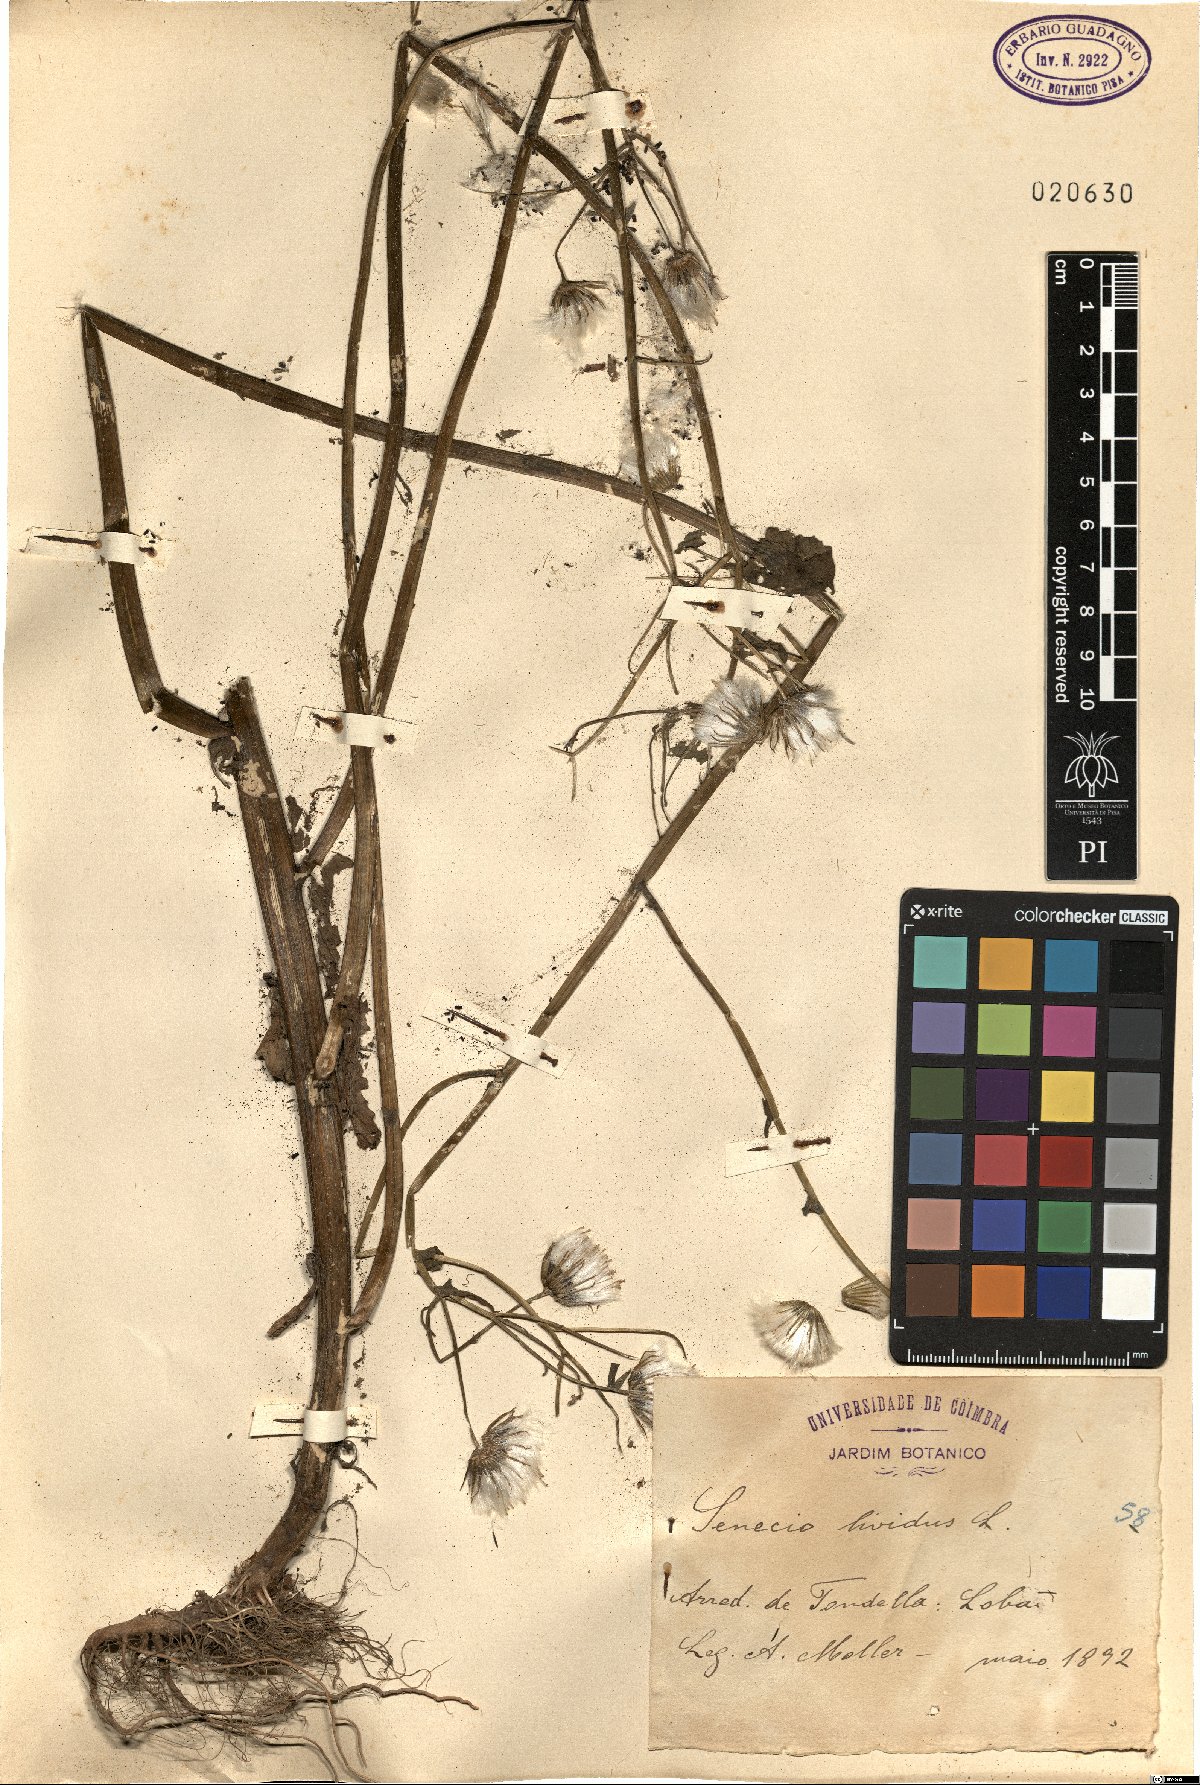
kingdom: Plantae
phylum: Tracheophyta
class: Magnoliopsida
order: Asterales
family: Asteraceae
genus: Senecio
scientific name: Senecio lividus
